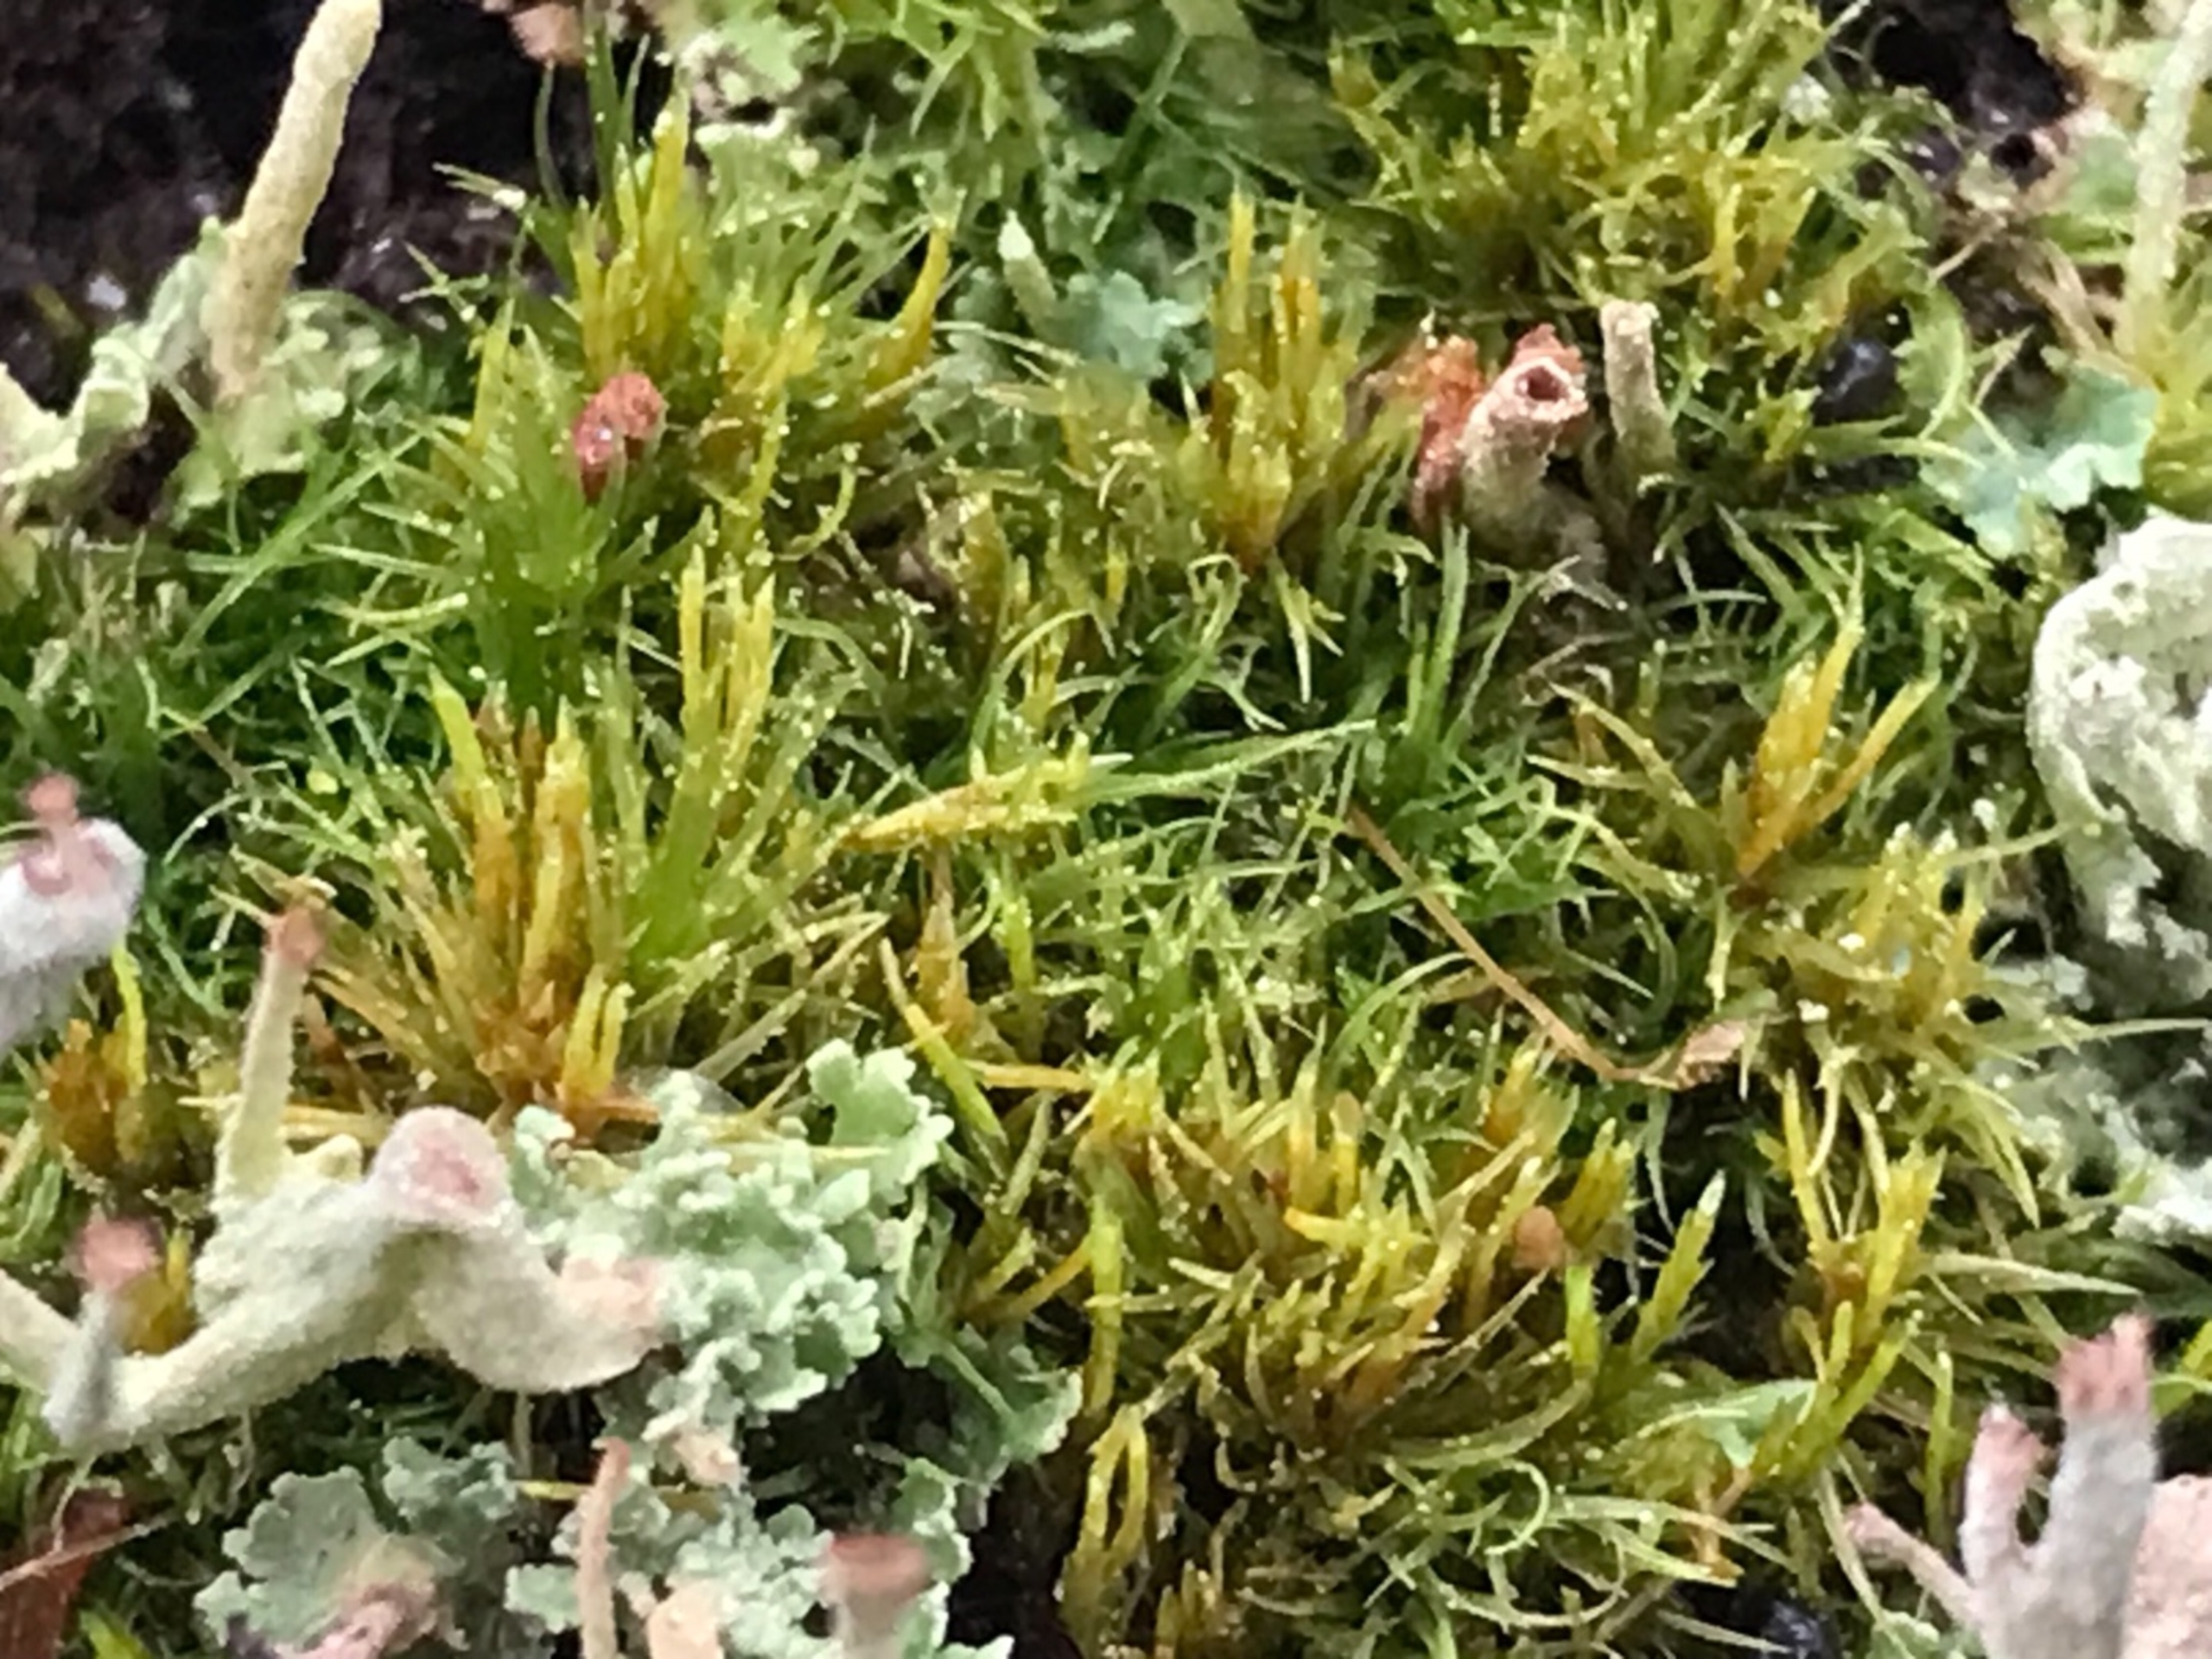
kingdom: Plantae
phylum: Bryophyta
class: Bryopsida
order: Dicranales
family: Dicranaceae
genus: Orthodicranum
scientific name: Orthodicranum flagellare
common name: Mangegrenet tyndvinge
